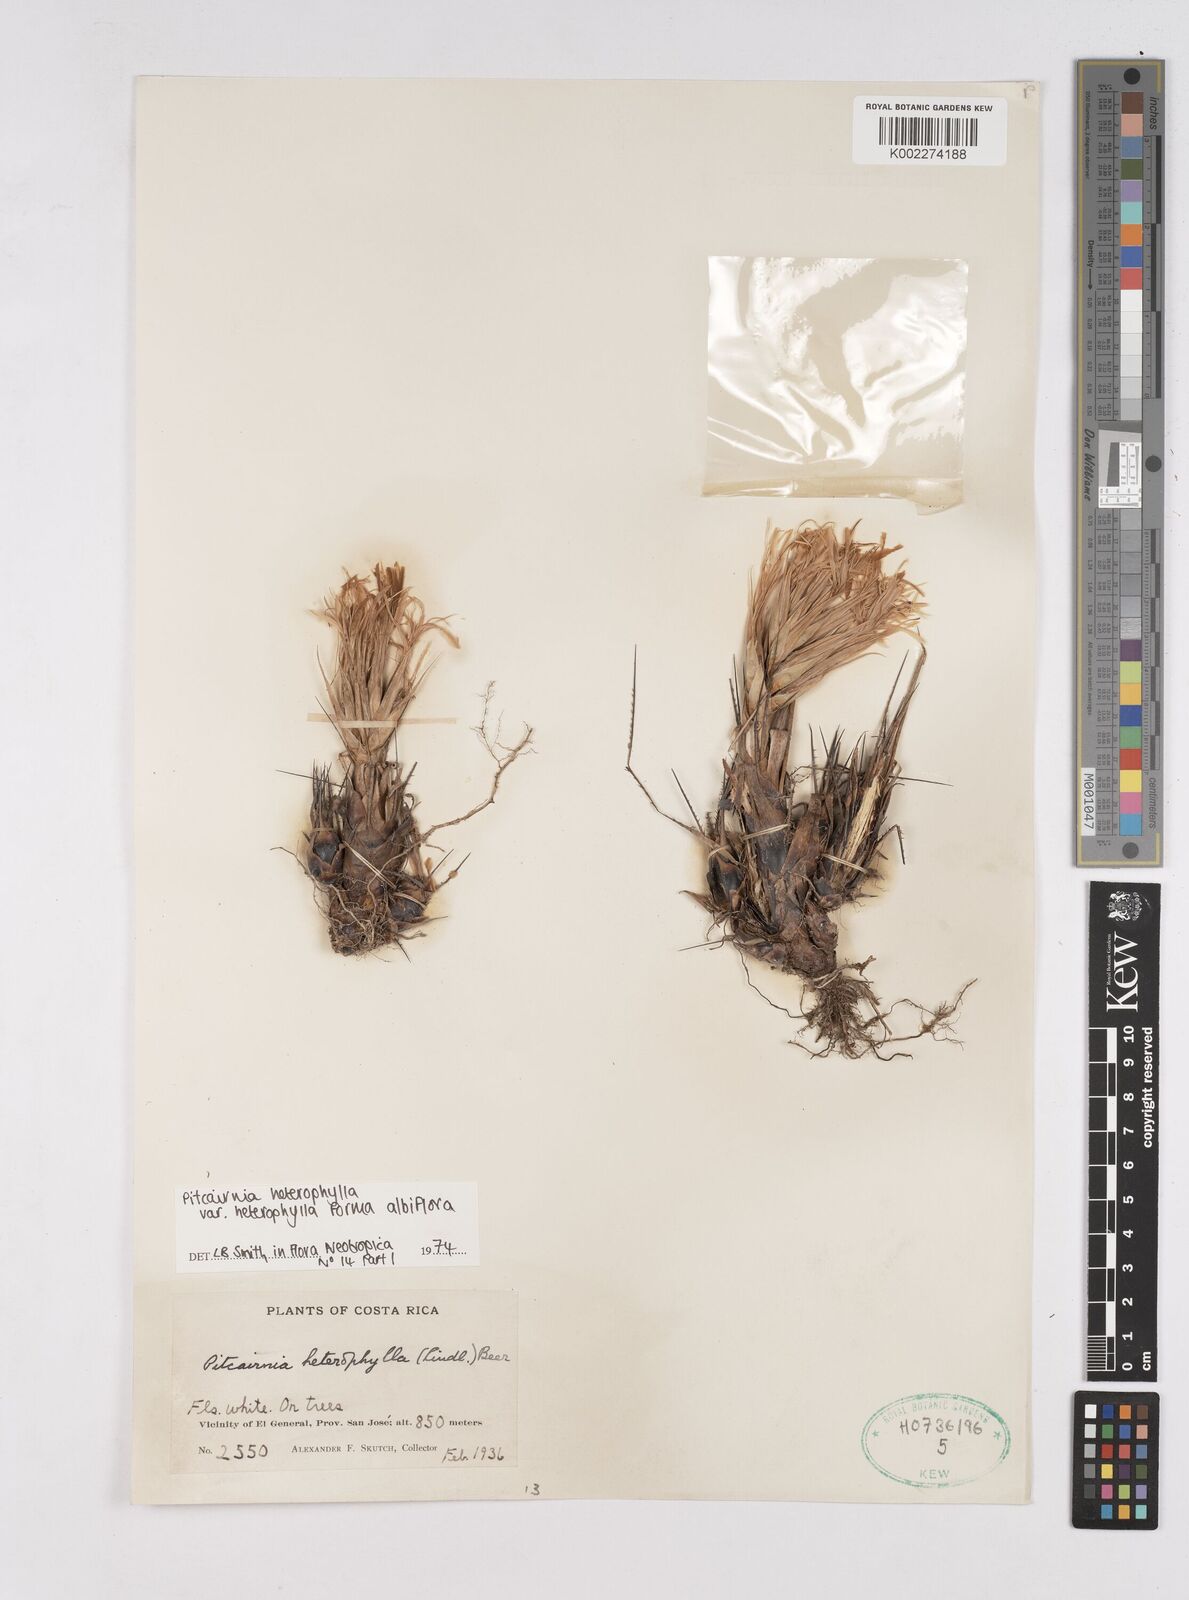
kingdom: Plantae
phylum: Tracheophyta
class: Liliopsida
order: Poales
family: Bromeliaceae
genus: Pitcairnia
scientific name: Pitcairnia heterophylla
